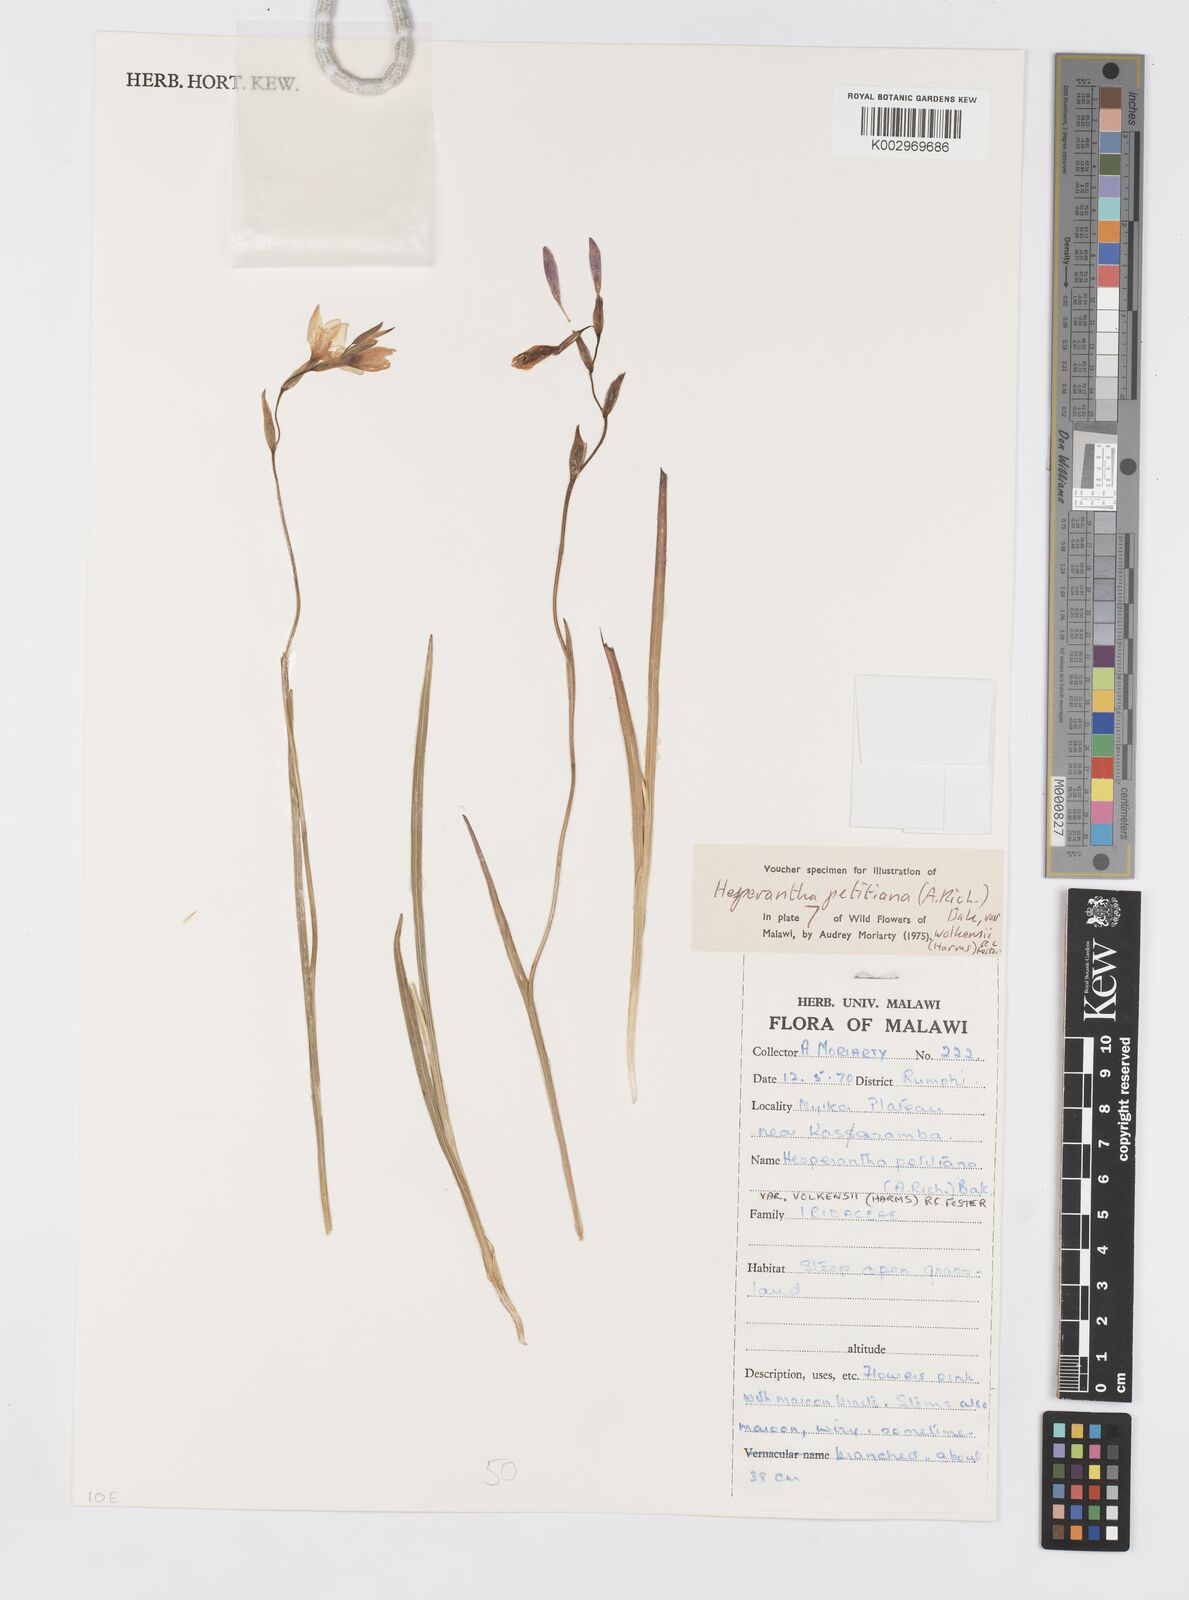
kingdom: Plantae
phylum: Tracheophyta
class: Liliopsida
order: Asparagales
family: Iridaceae
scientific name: Iridaceae
